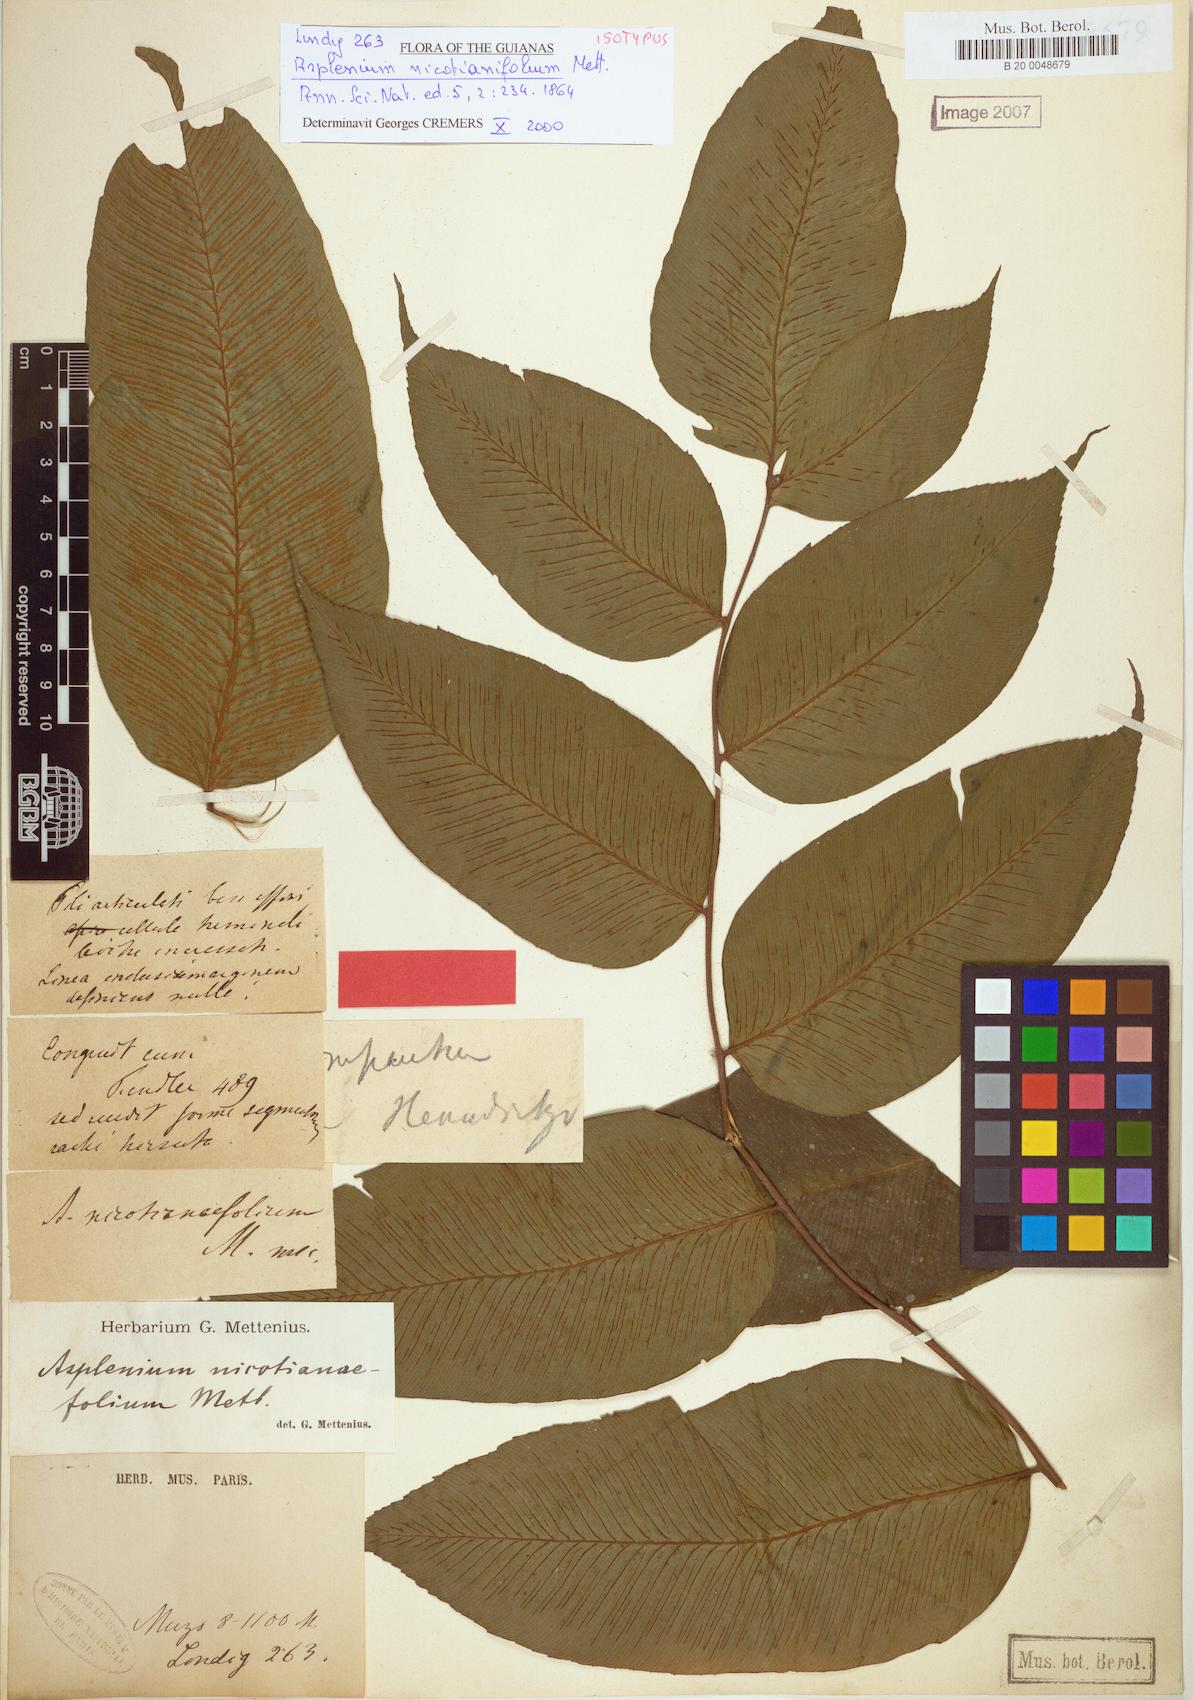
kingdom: Plantae
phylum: Tracheophyta
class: Polypodiopsida
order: Polypodiales
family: Athyriaceae
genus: Diplazium
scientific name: Diplazium nicotianifolium
